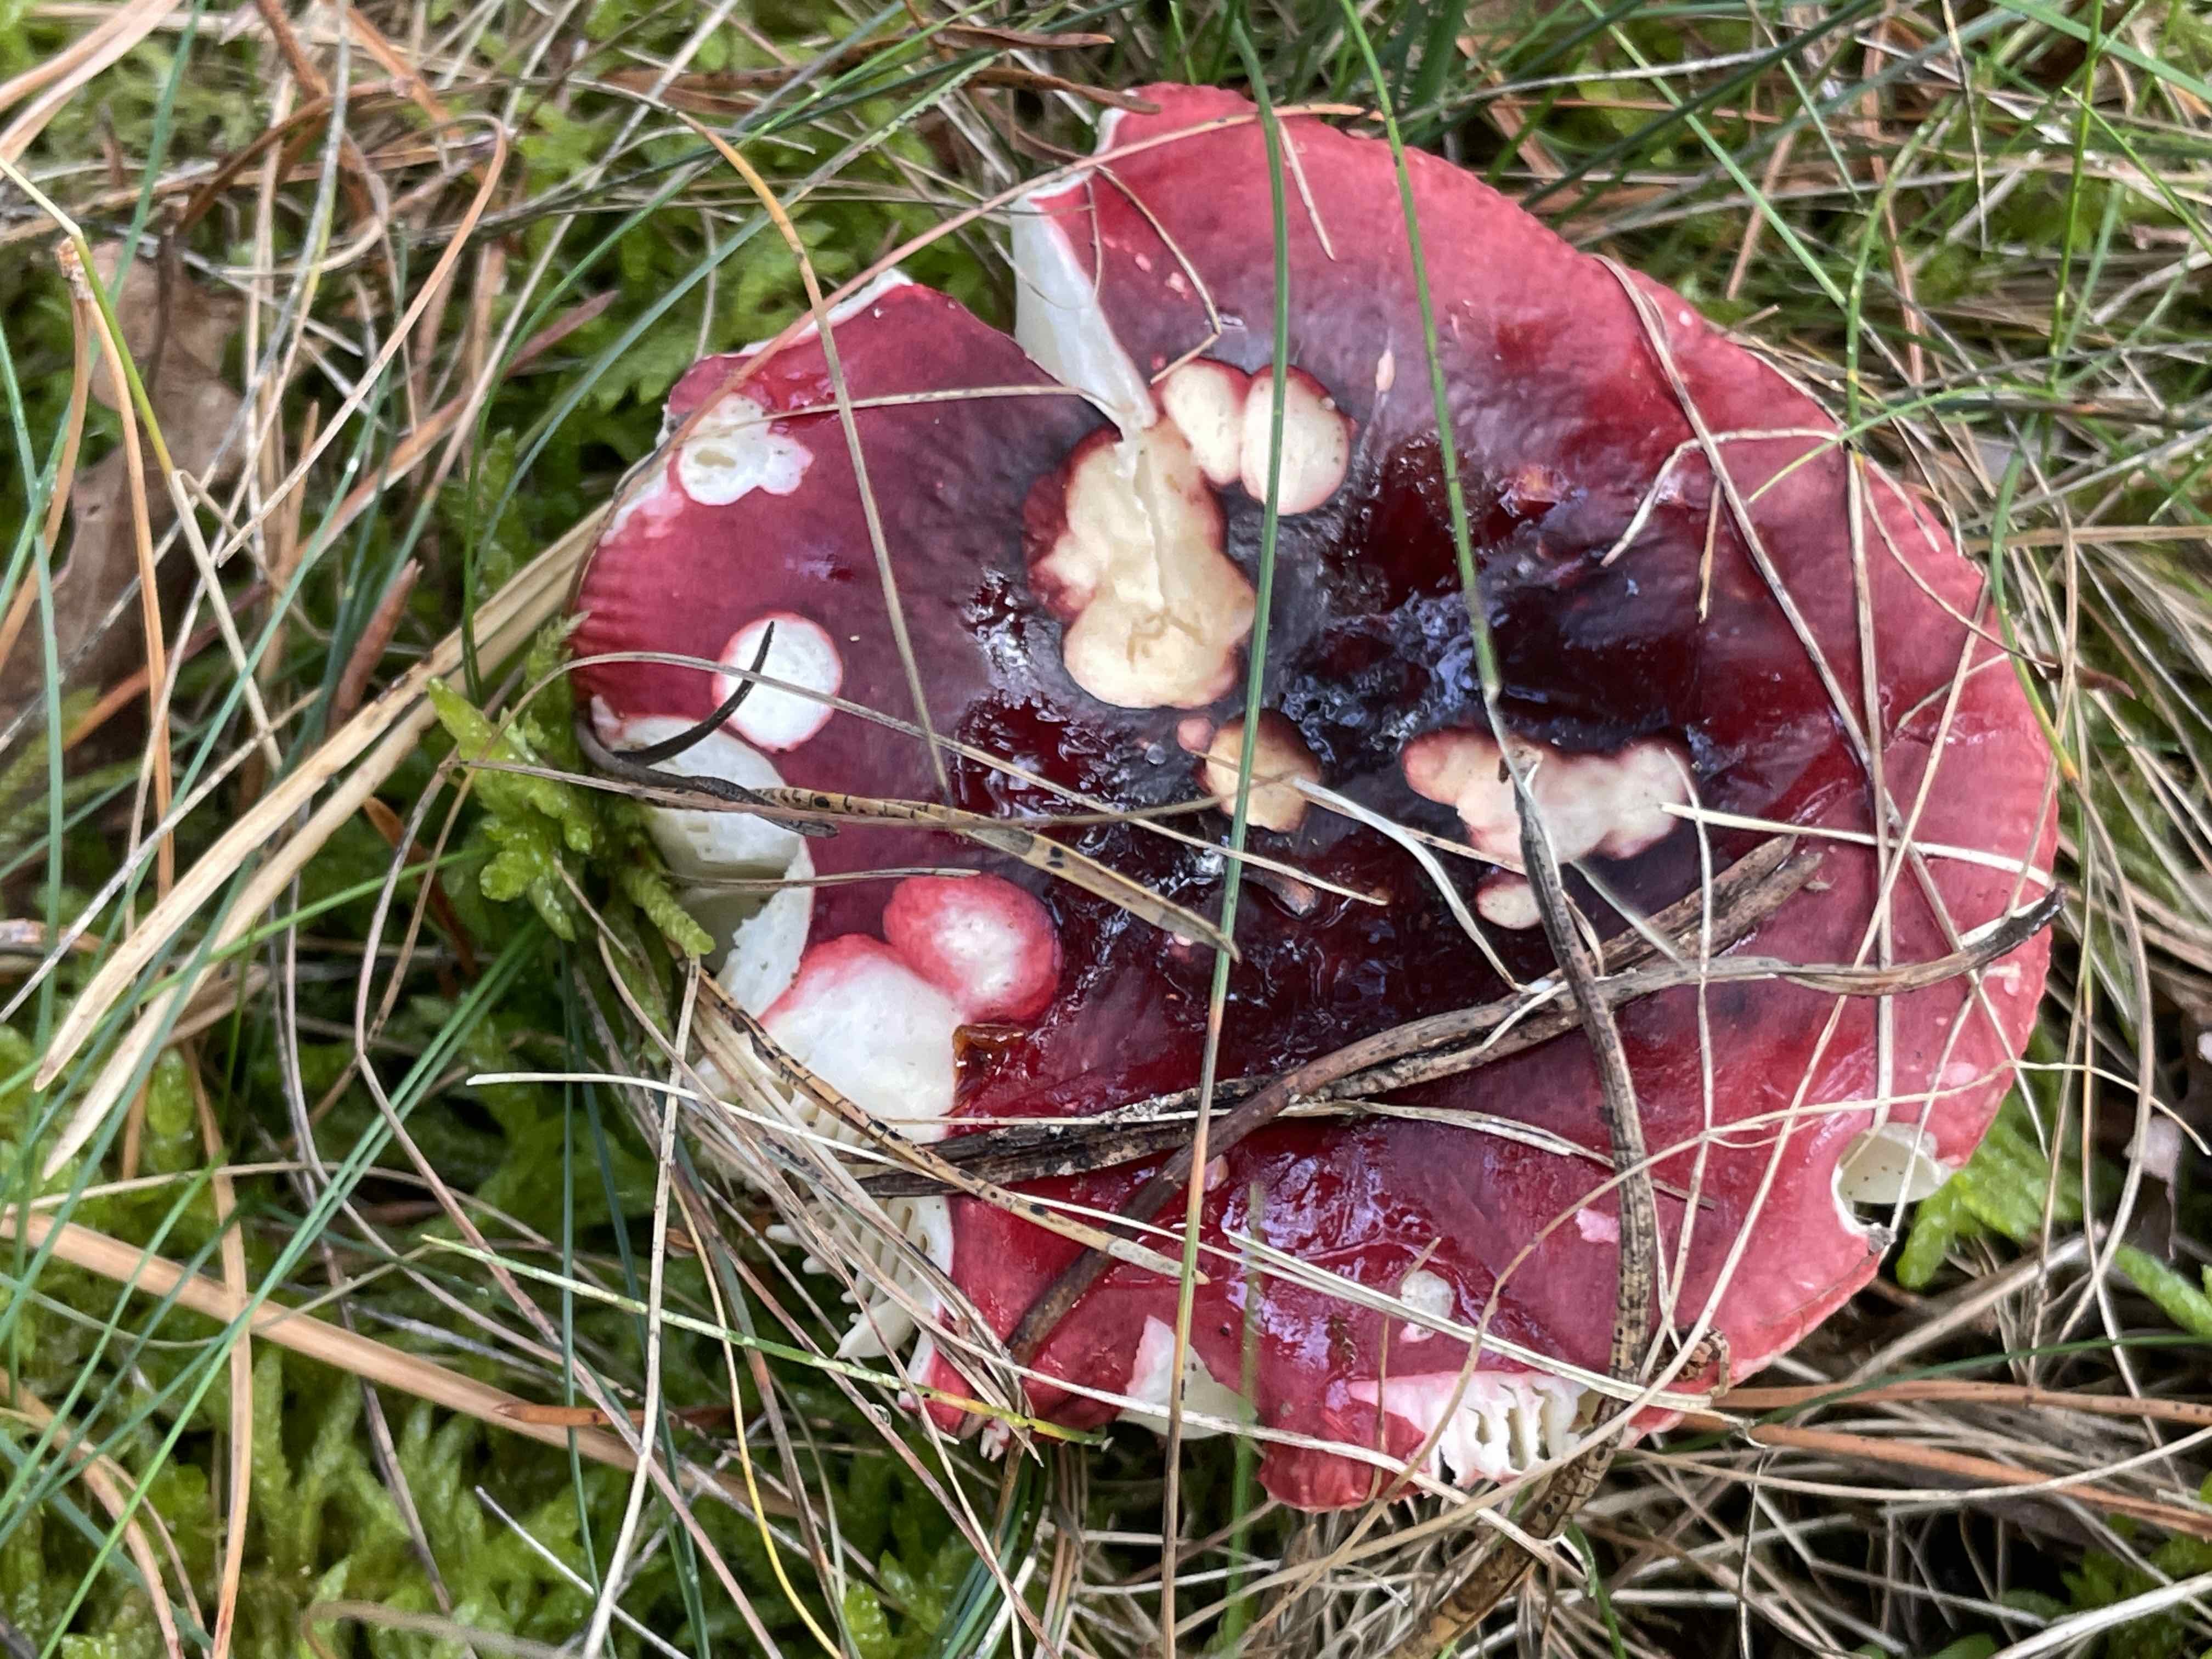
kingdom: Fungi
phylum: Basidiomycota
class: Agaricomycetes
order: Russulales
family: Russulaceae
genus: Russula
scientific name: Russula xerampelina
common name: hummer-skørhat
